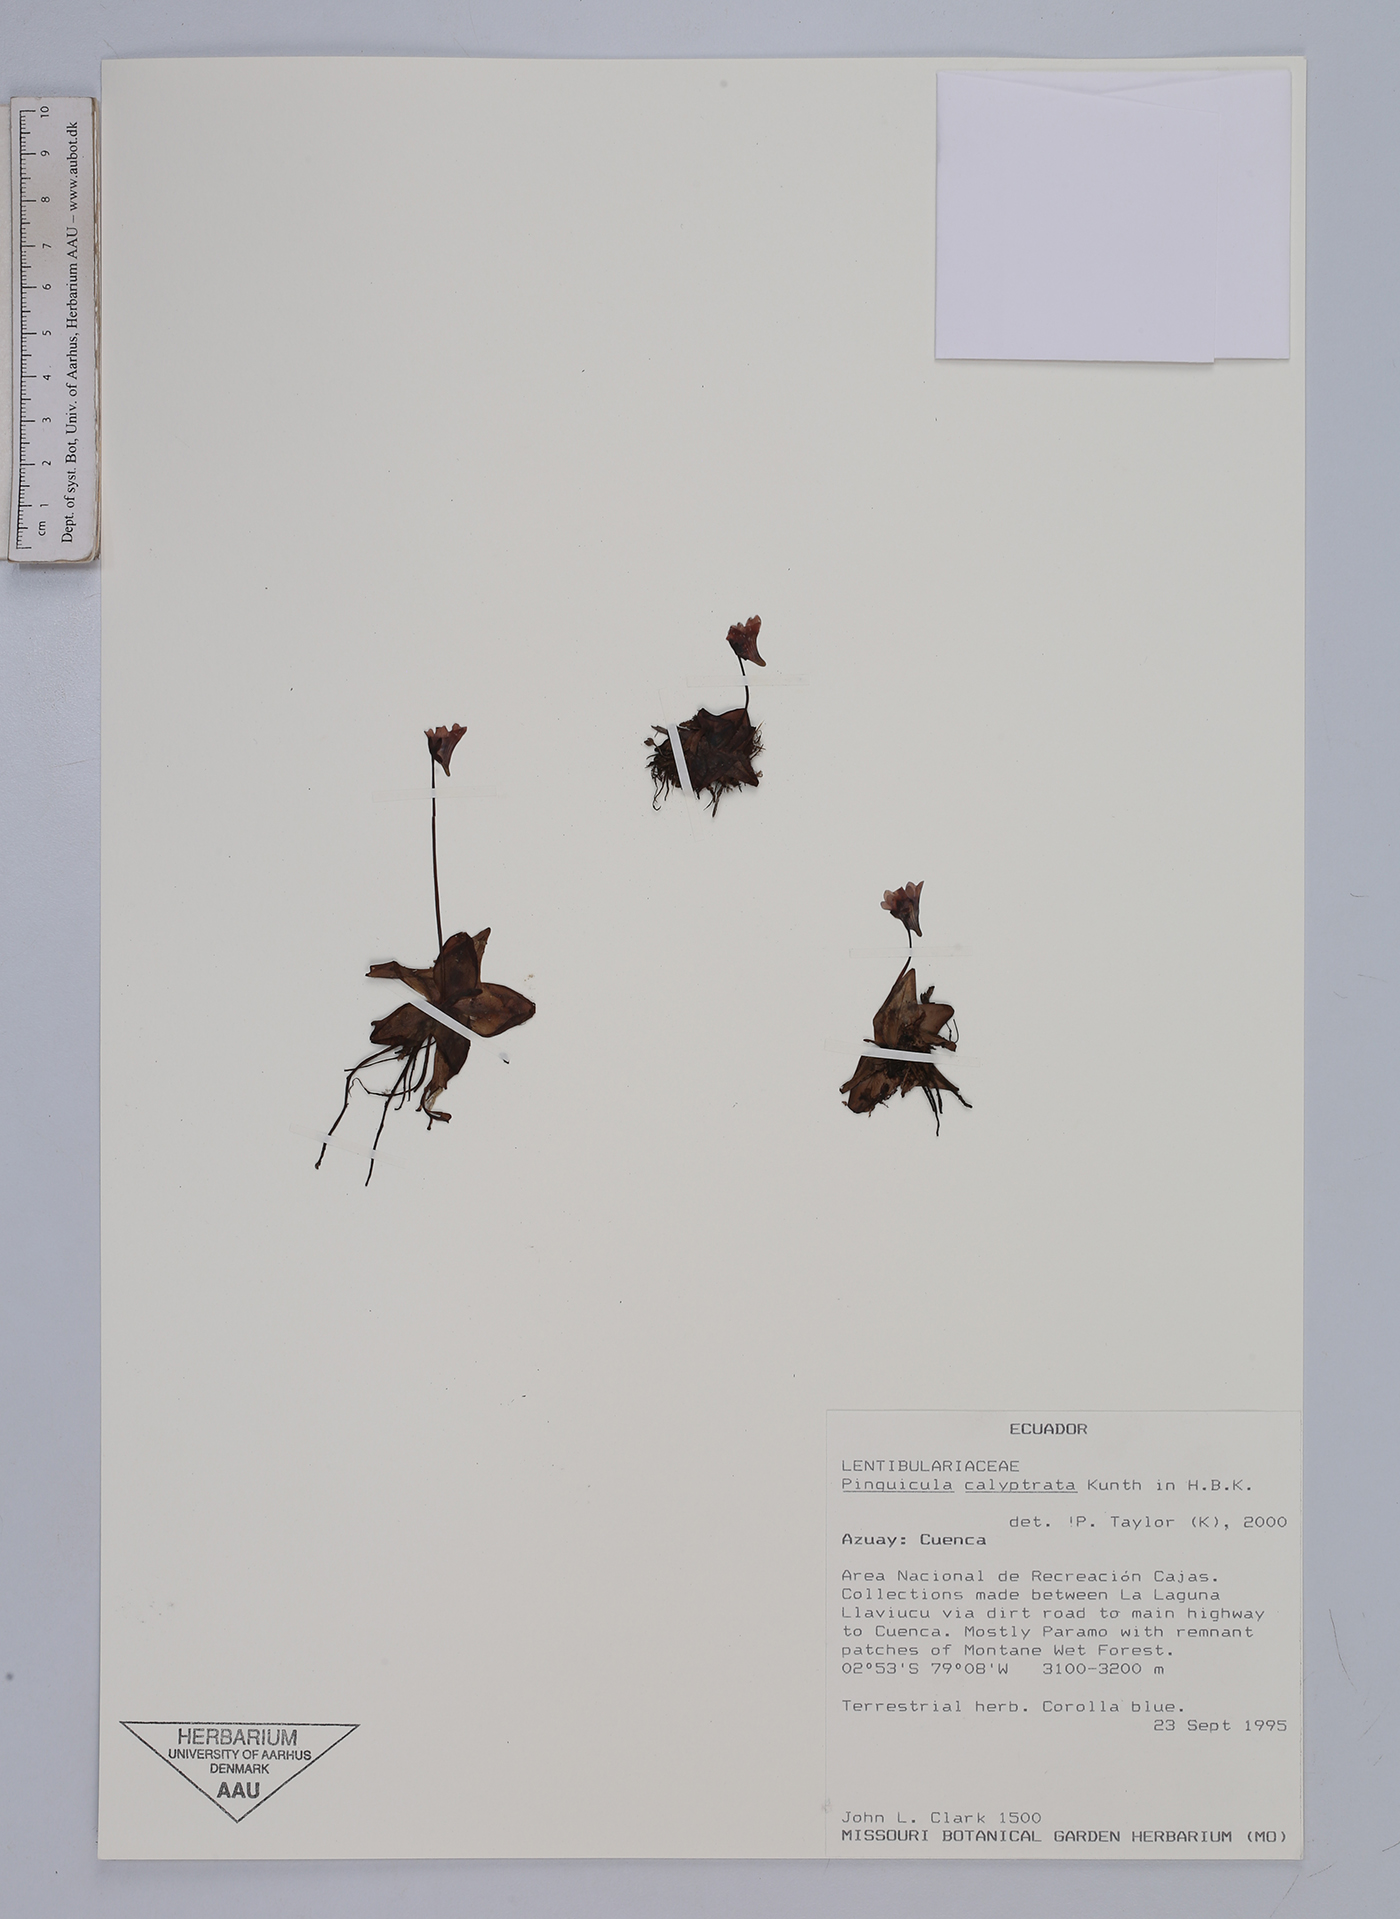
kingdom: Plantae
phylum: Tracheophyta
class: Magnoliopsida
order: Lamiales
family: Lentibulariaceae
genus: Pinguicula
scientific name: Pinguicula calyptrata
